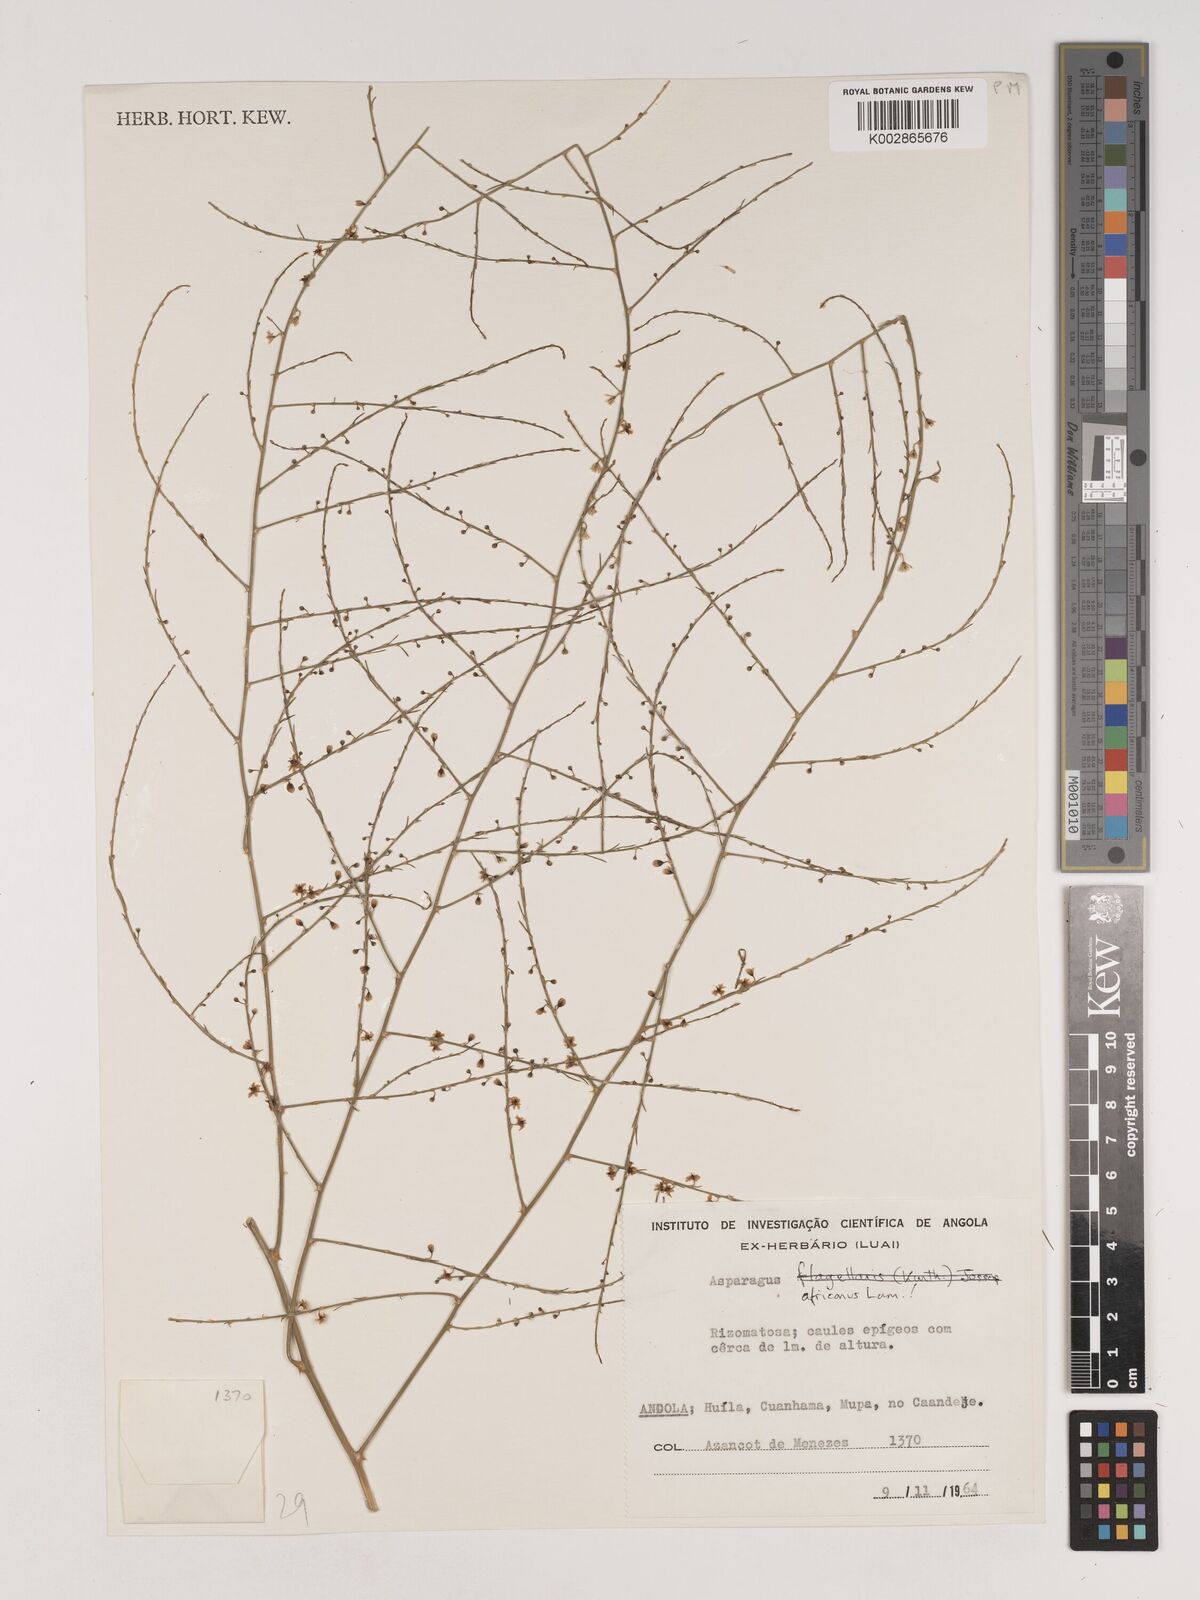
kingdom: Plantae
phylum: Tracheophyta
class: Liliopsida
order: Asparagales
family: Asparagaceae
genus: Asparagus
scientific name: Asparagus africanus
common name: Asparagus-fern
